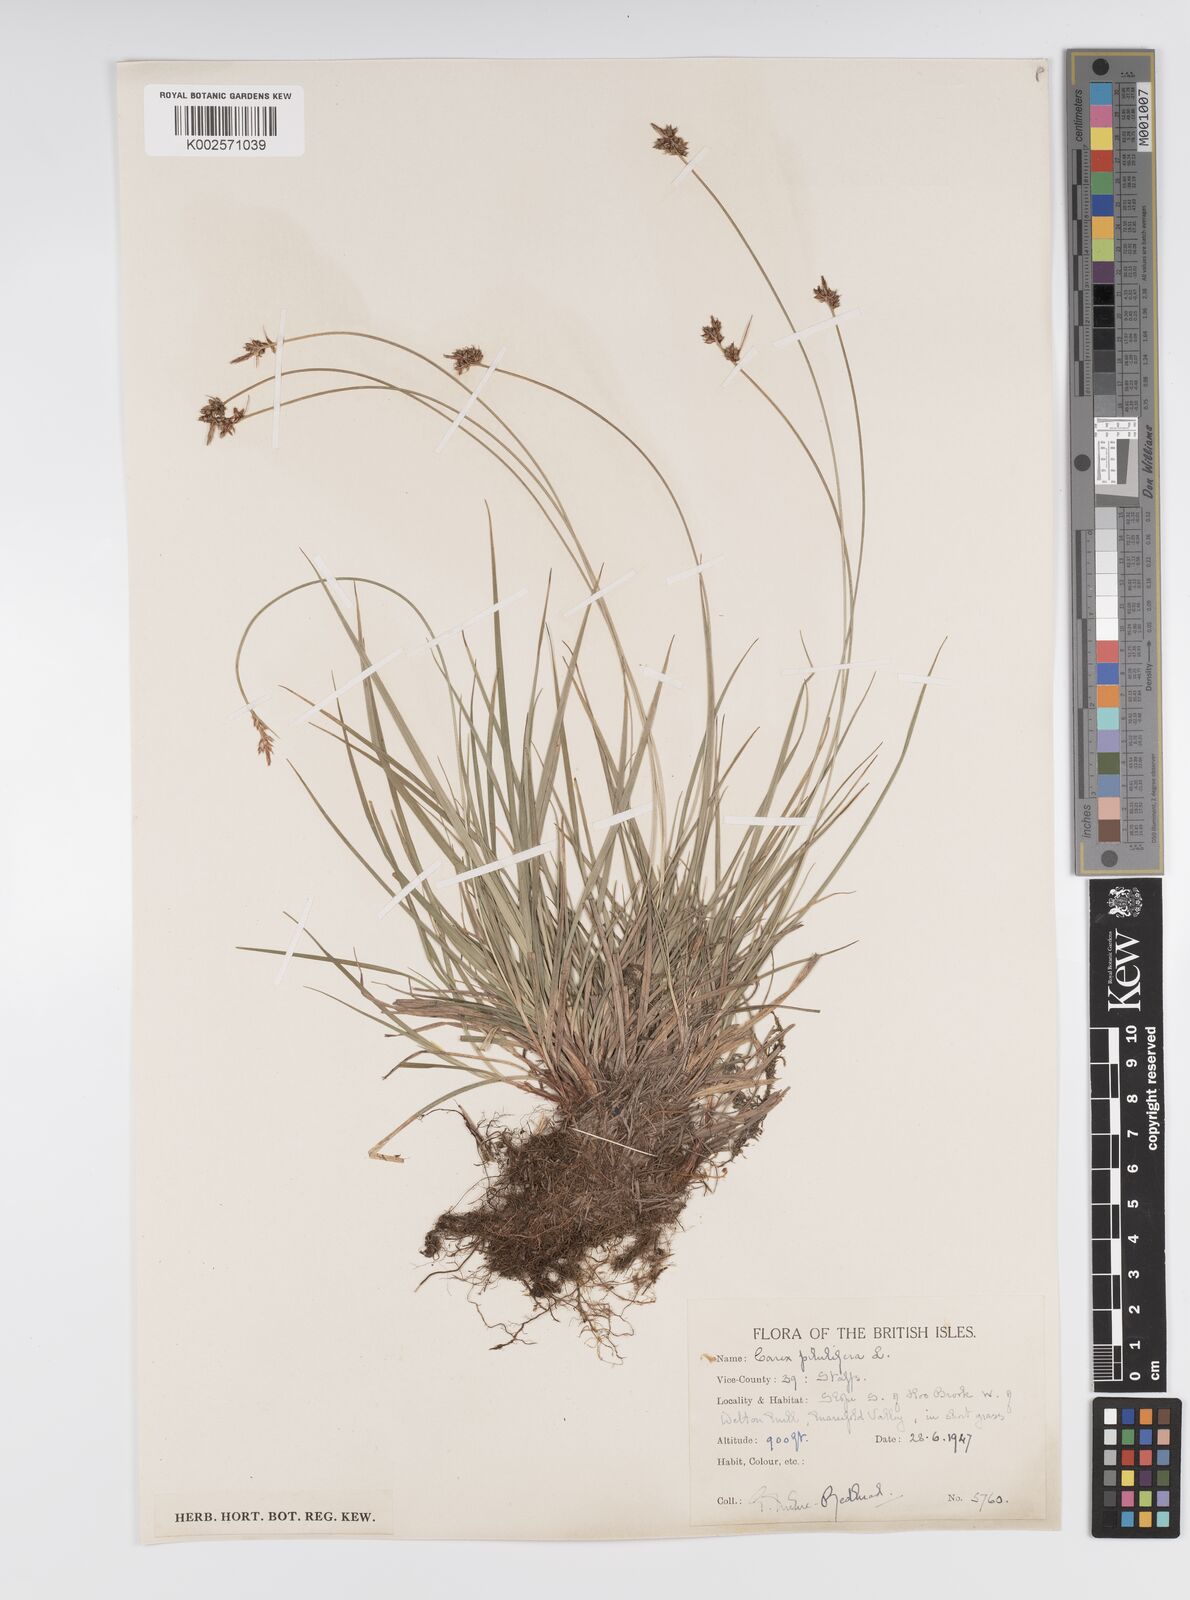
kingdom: Plantae
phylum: Tracheophyta
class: Liliopsida
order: Poales
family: Cyperaceae
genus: Carex
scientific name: Carex pilulifera
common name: Pill sedge
